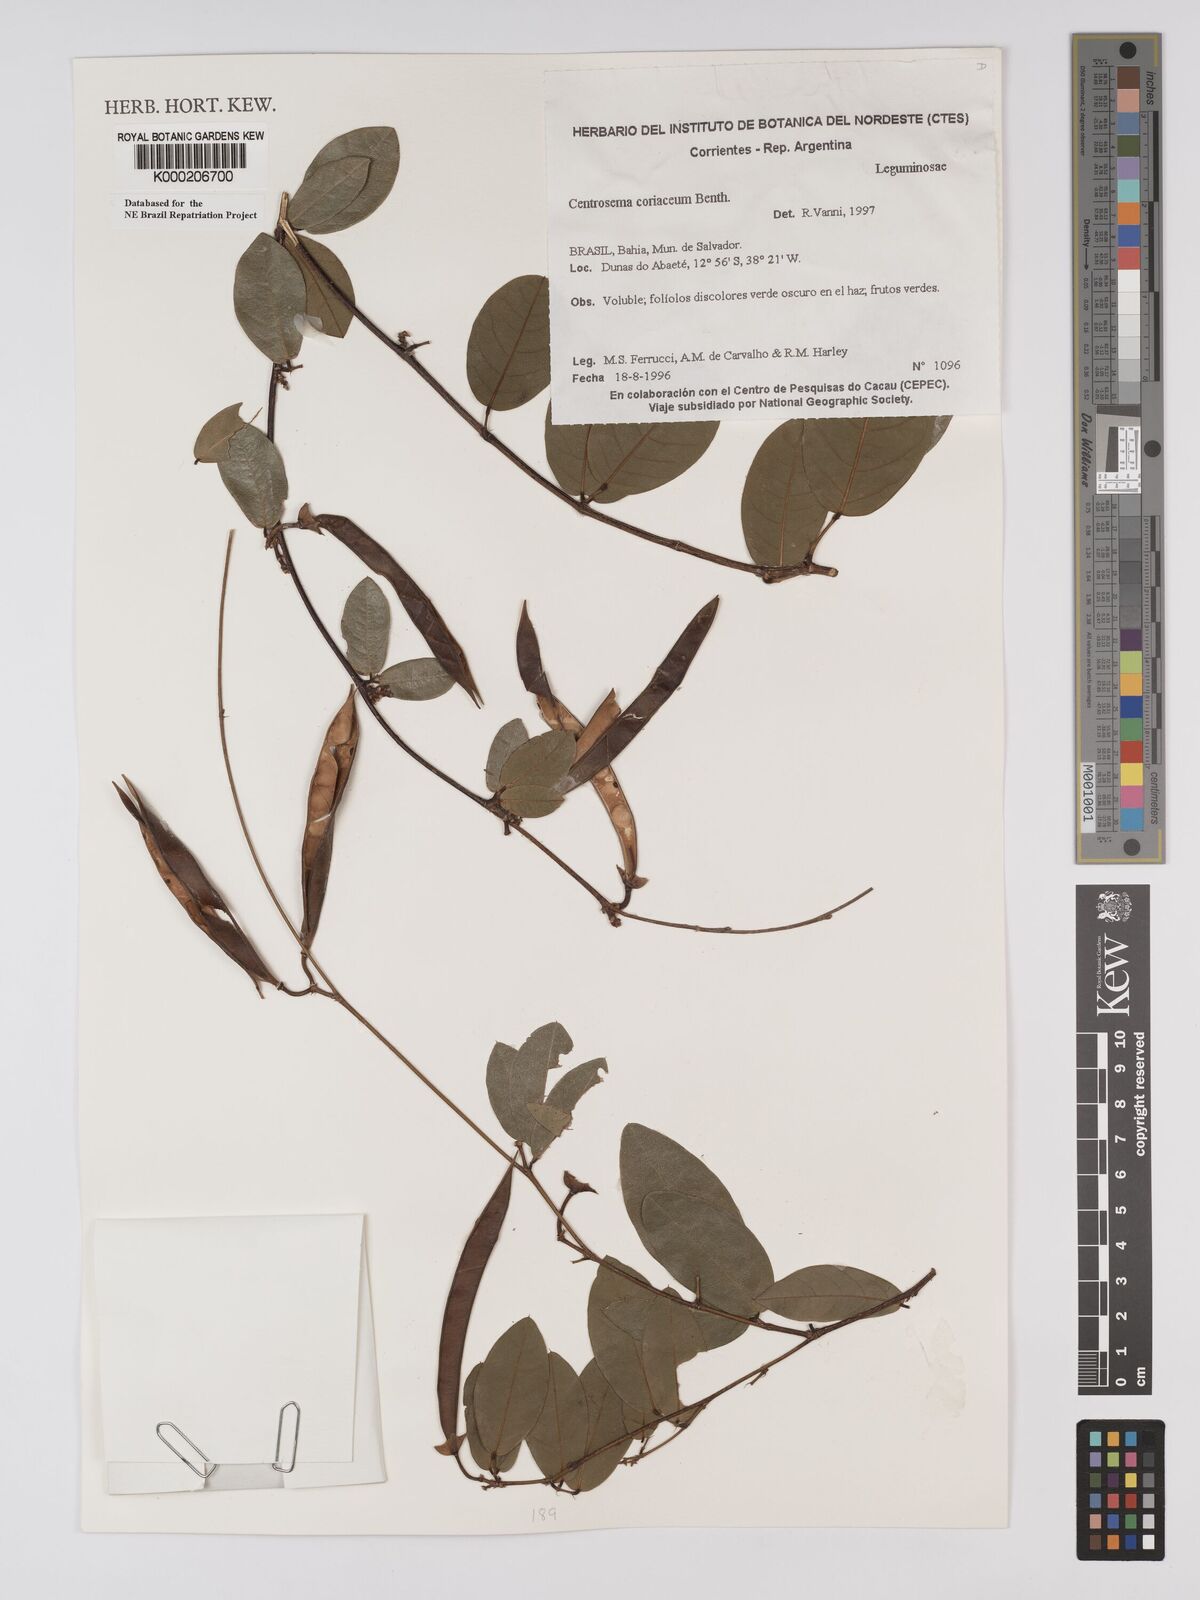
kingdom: Plantae
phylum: Tracheophyta
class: Magnoliopsida
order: Fabales
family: Fabaceae
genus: Centrosema
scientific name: Centrosema coriaceum
